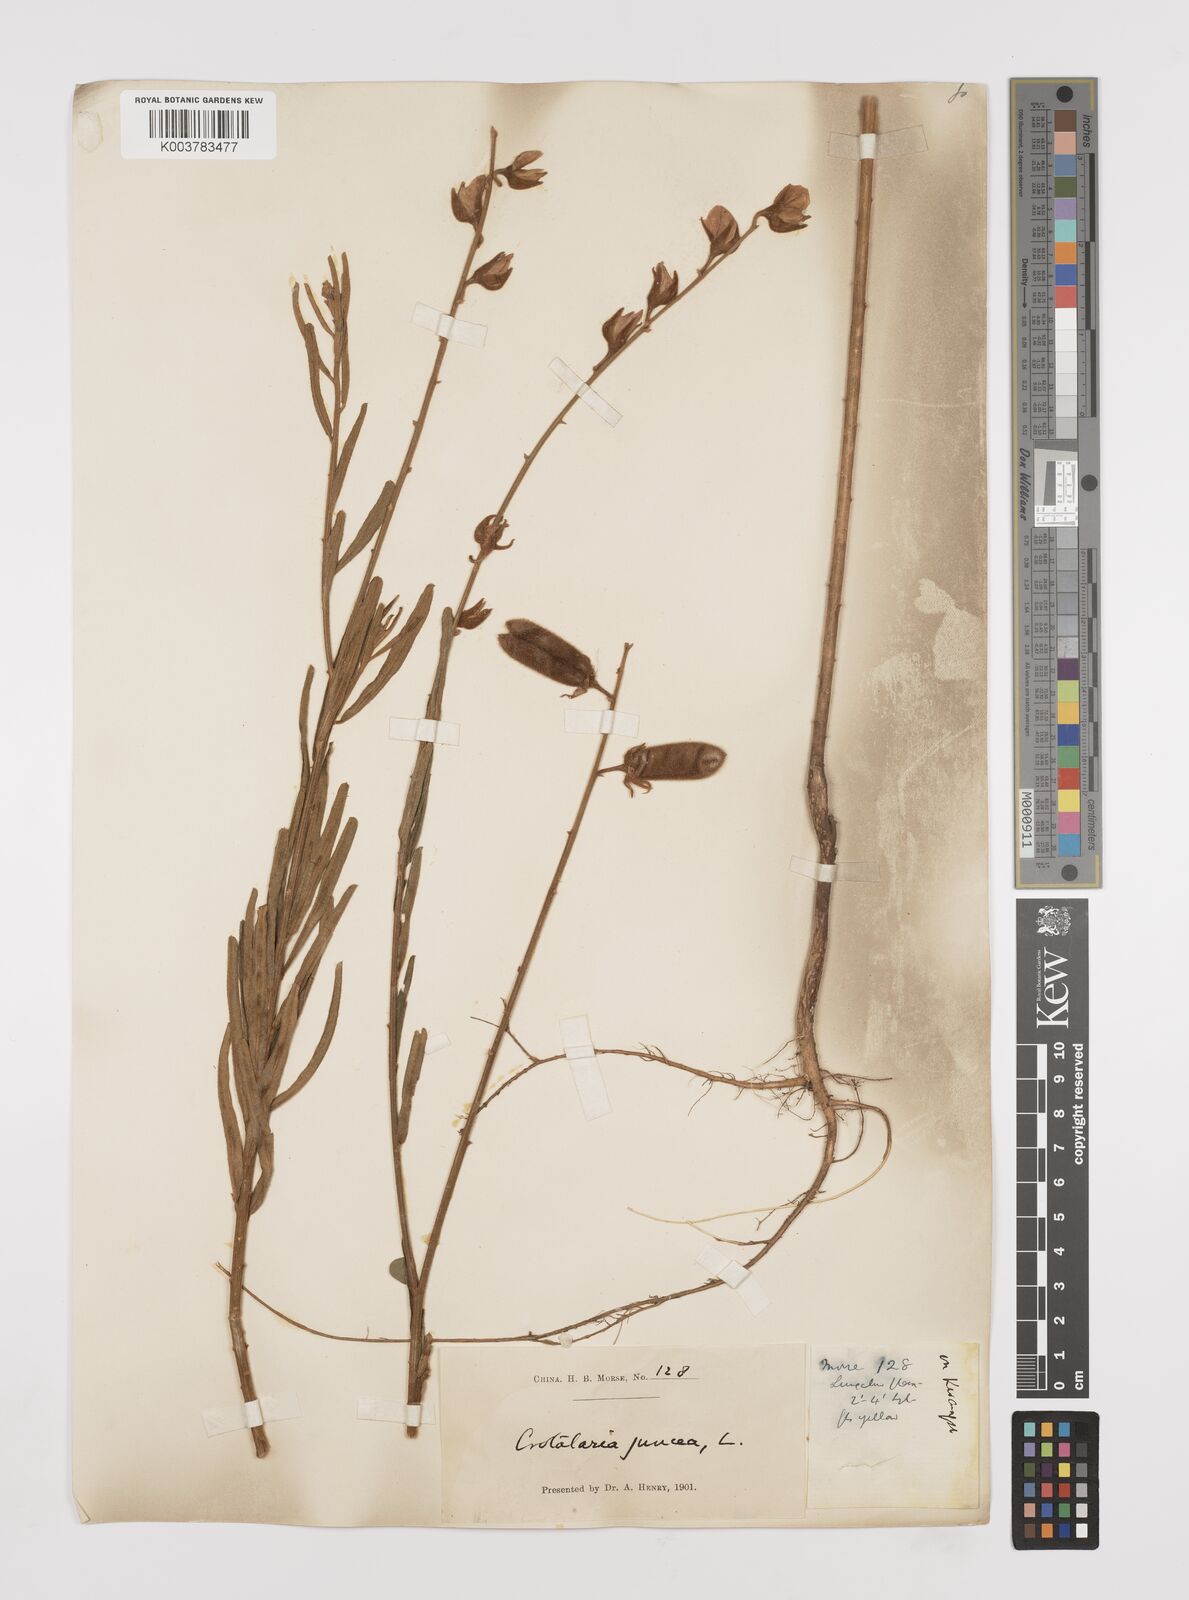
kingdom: Plantae
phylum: Tracheophyta
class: Magnoliopsida
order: Fabales
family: Fabaceae
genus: Crotalaria
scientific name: Crotalaria juncea
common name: Sunn hemp
